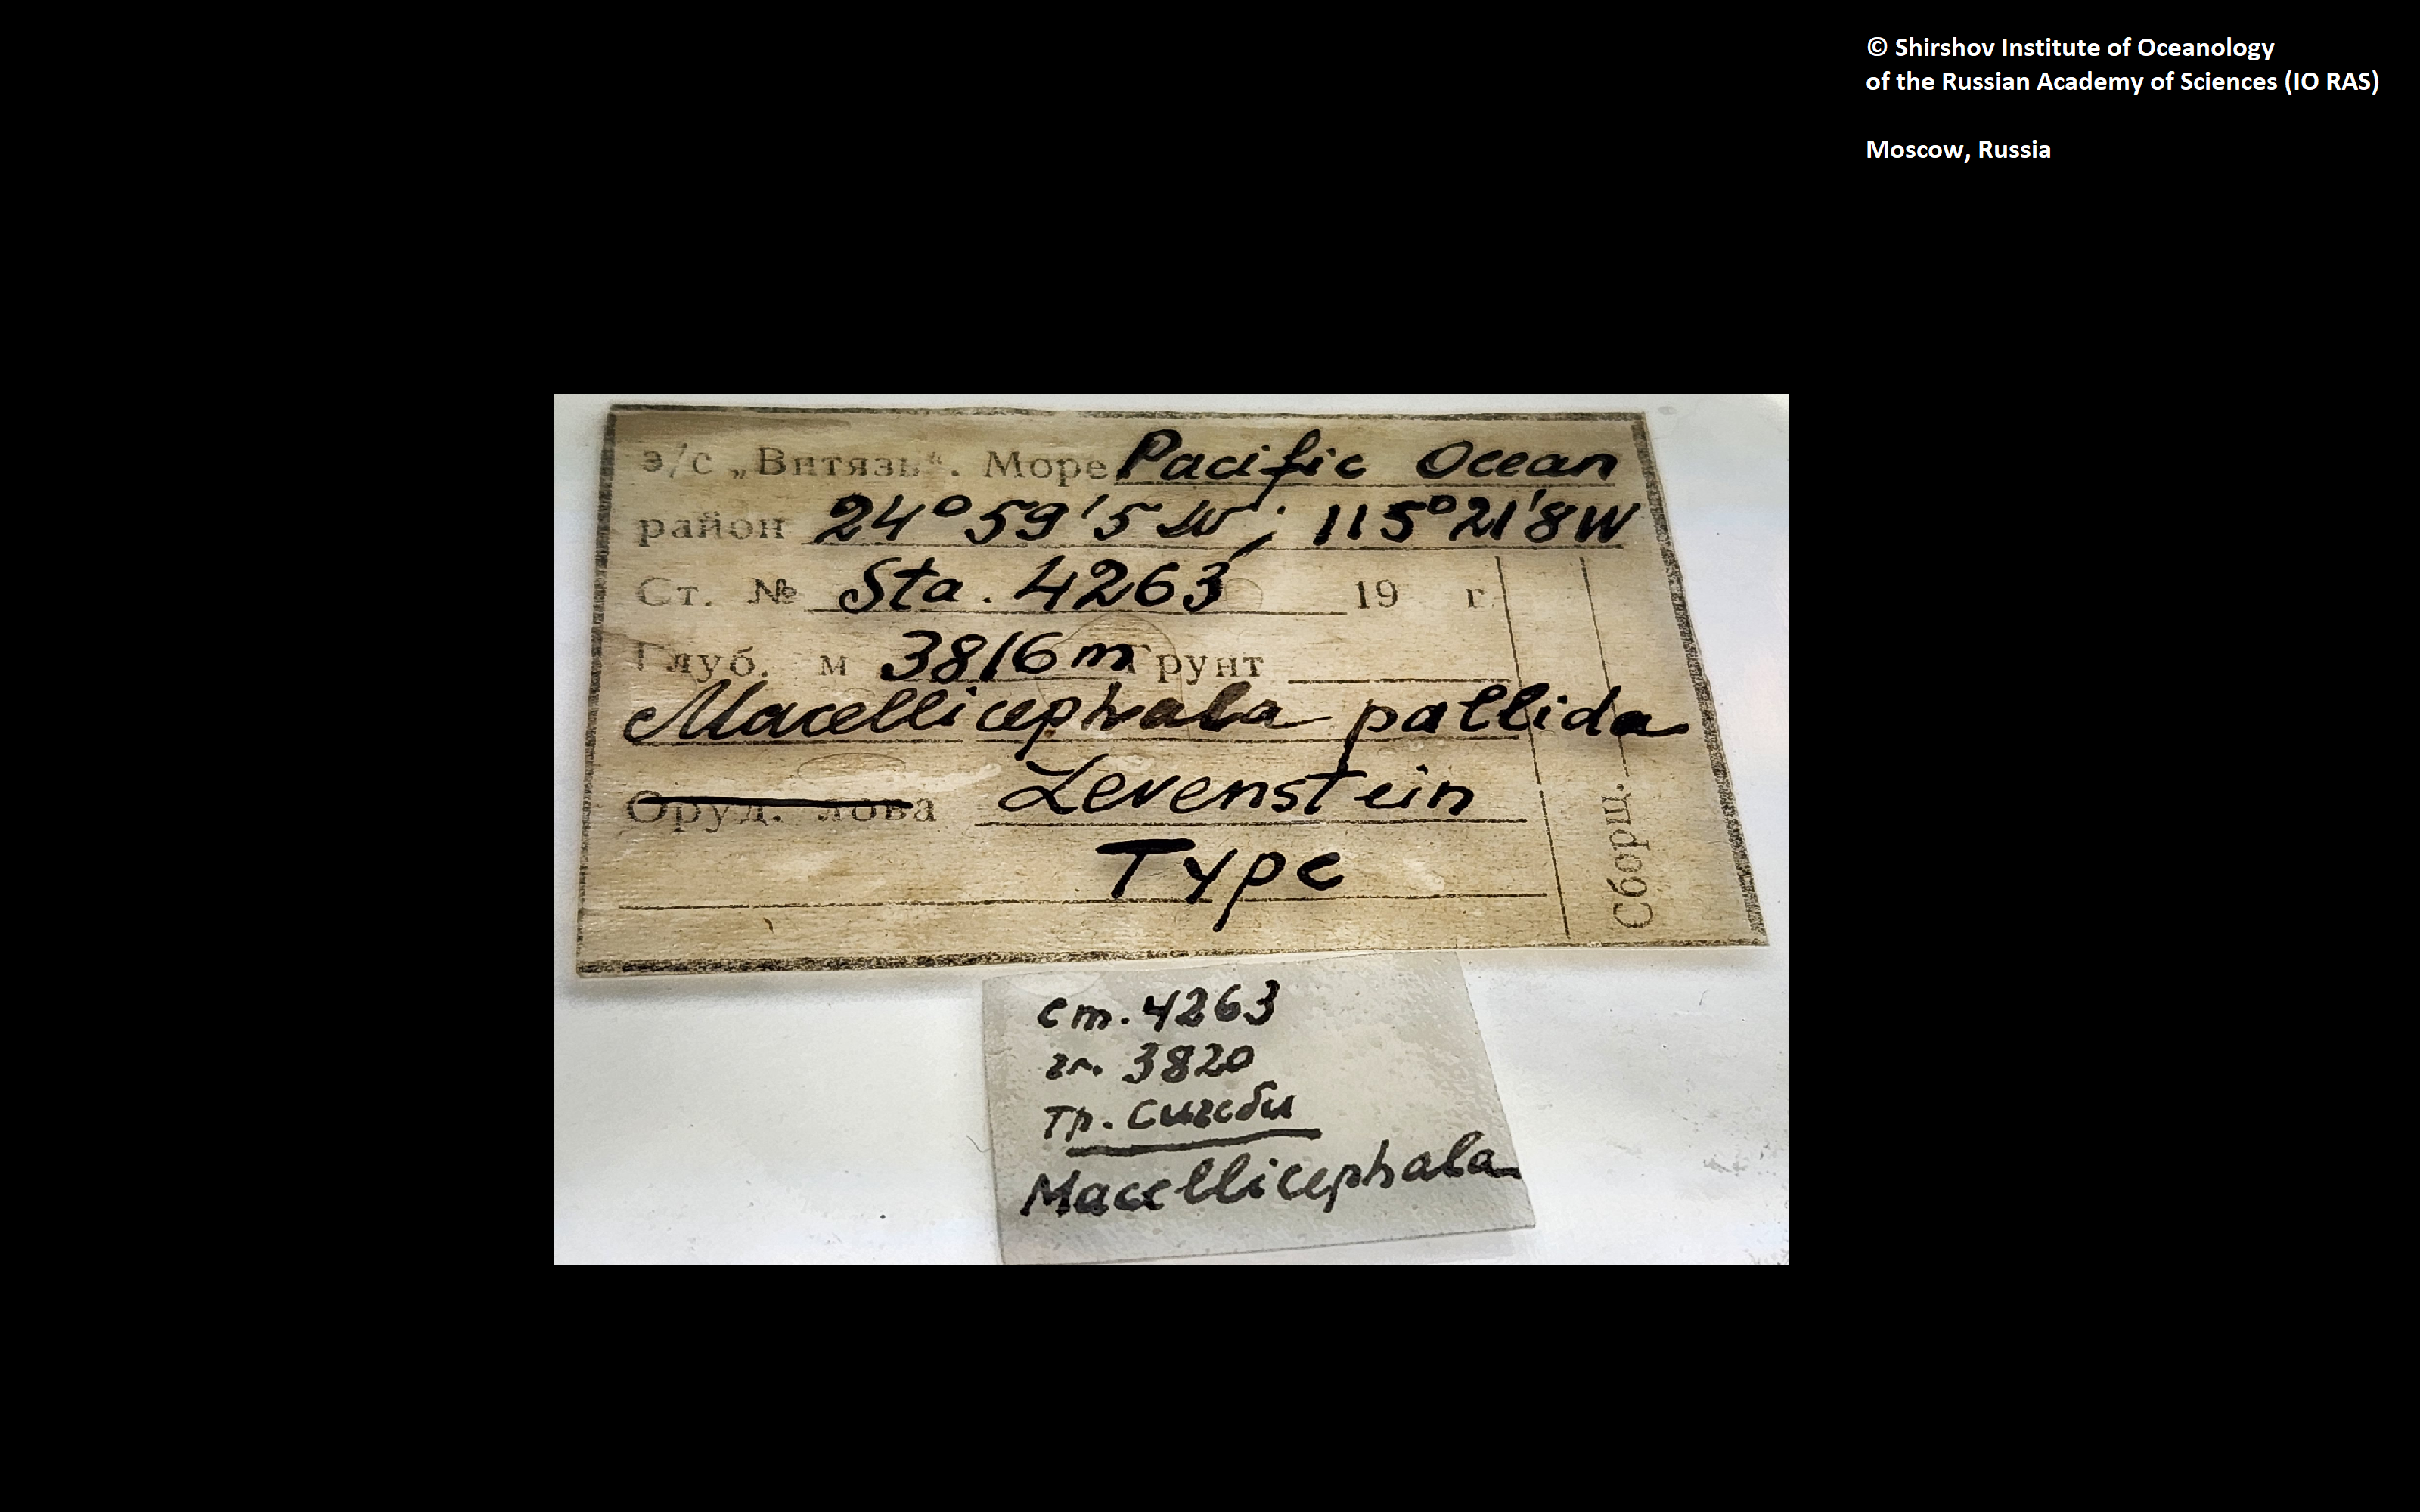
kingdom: Animalia
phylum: Annelida
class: Polychaeta
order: Phyllodocida
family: Polynoidae
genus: Bathyvitiazia
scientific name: Bathyvitiazia pallida
